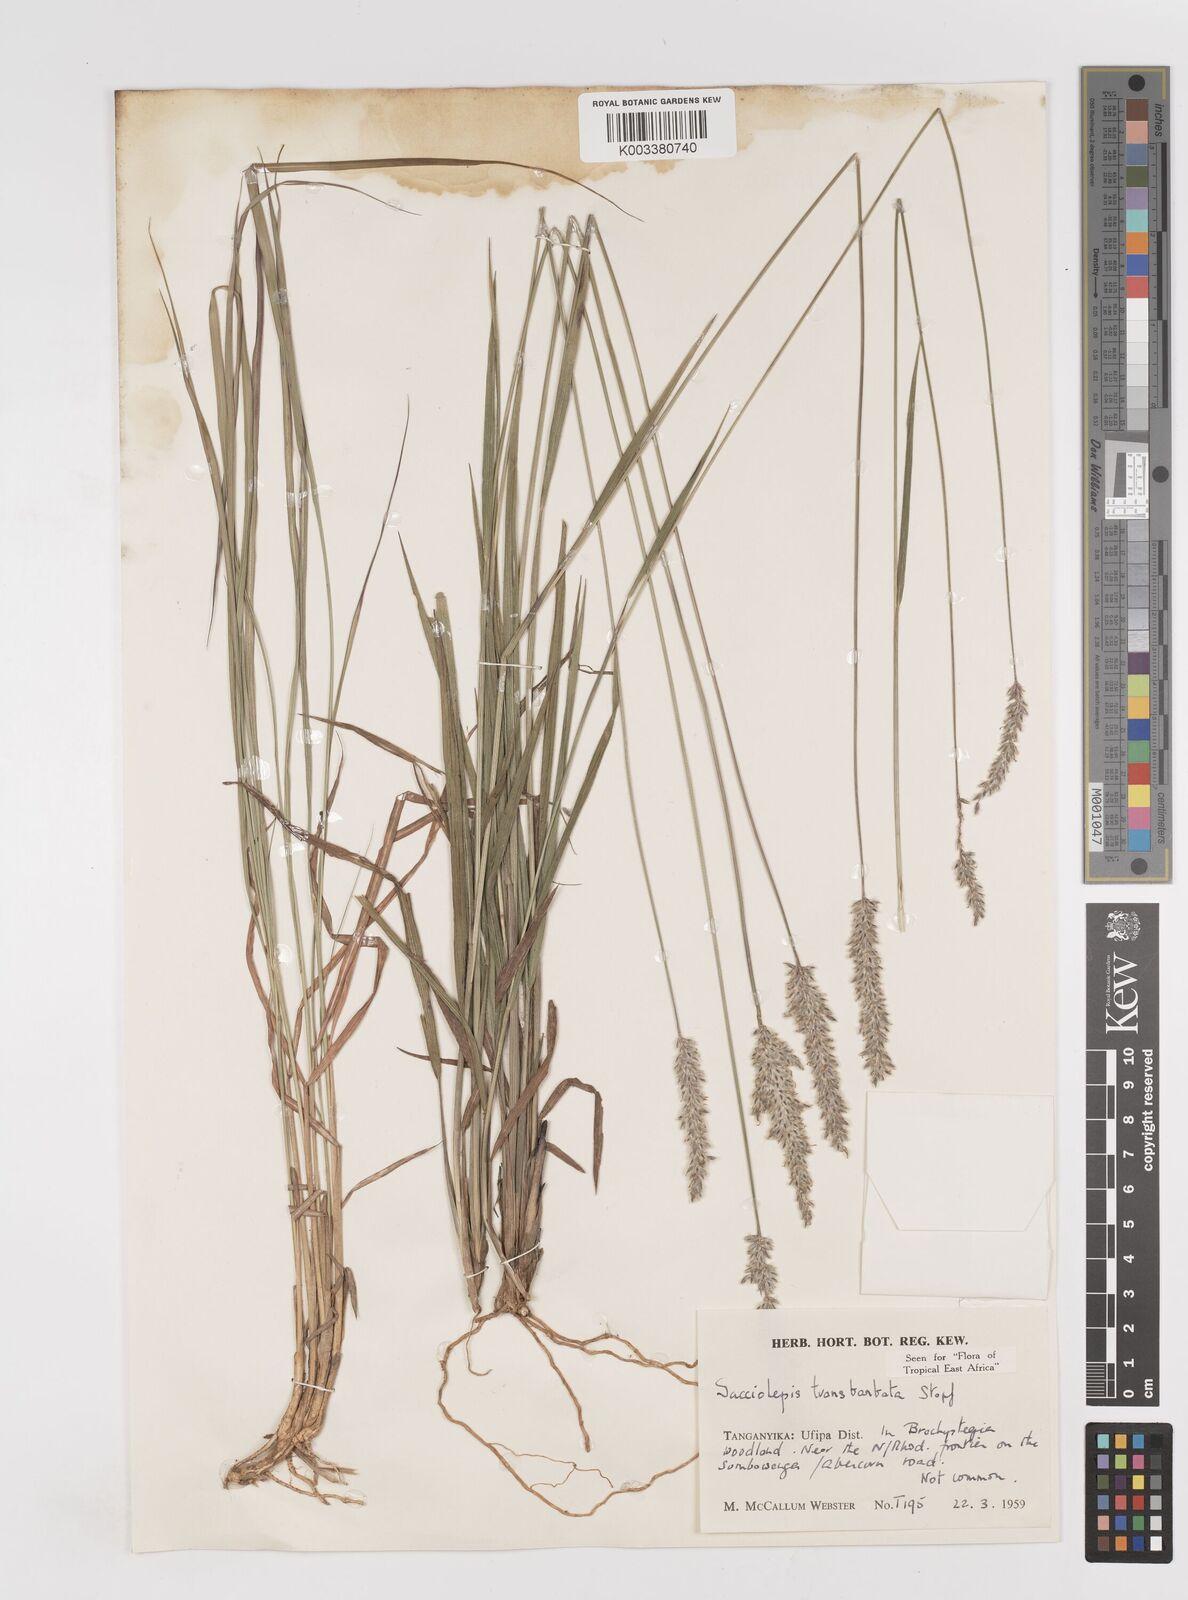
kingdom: Plantae
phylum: Tracheophyta
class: Liliopsida
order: Poales
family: Poaceae
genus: Sacciolepis
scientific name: Sacciolepis transbarbata
